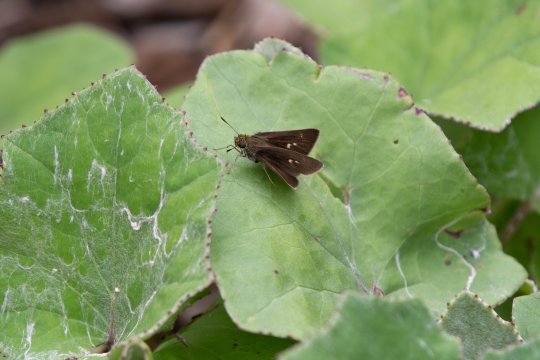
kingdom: Animalia
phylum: Arthropoda
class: Insecta
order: Lepidoptera
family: Hesperiidae
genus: Polites
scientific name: Polites egeremet
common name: Northern Broken-Dash
